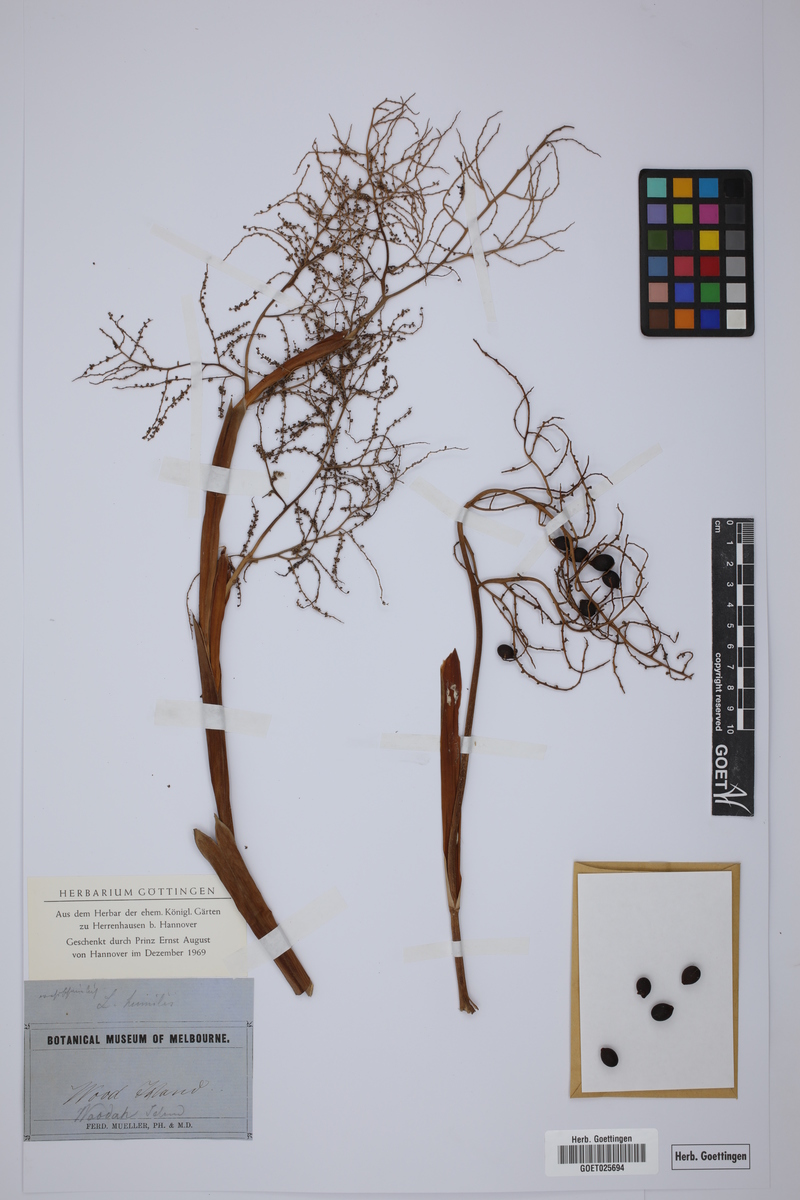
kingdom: Plantae
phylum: Tracheophyta
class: Liliopsida
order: Arecales
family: Arecaceae
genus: Livistona
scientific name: Livistona humilis
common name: Cabbage palm
